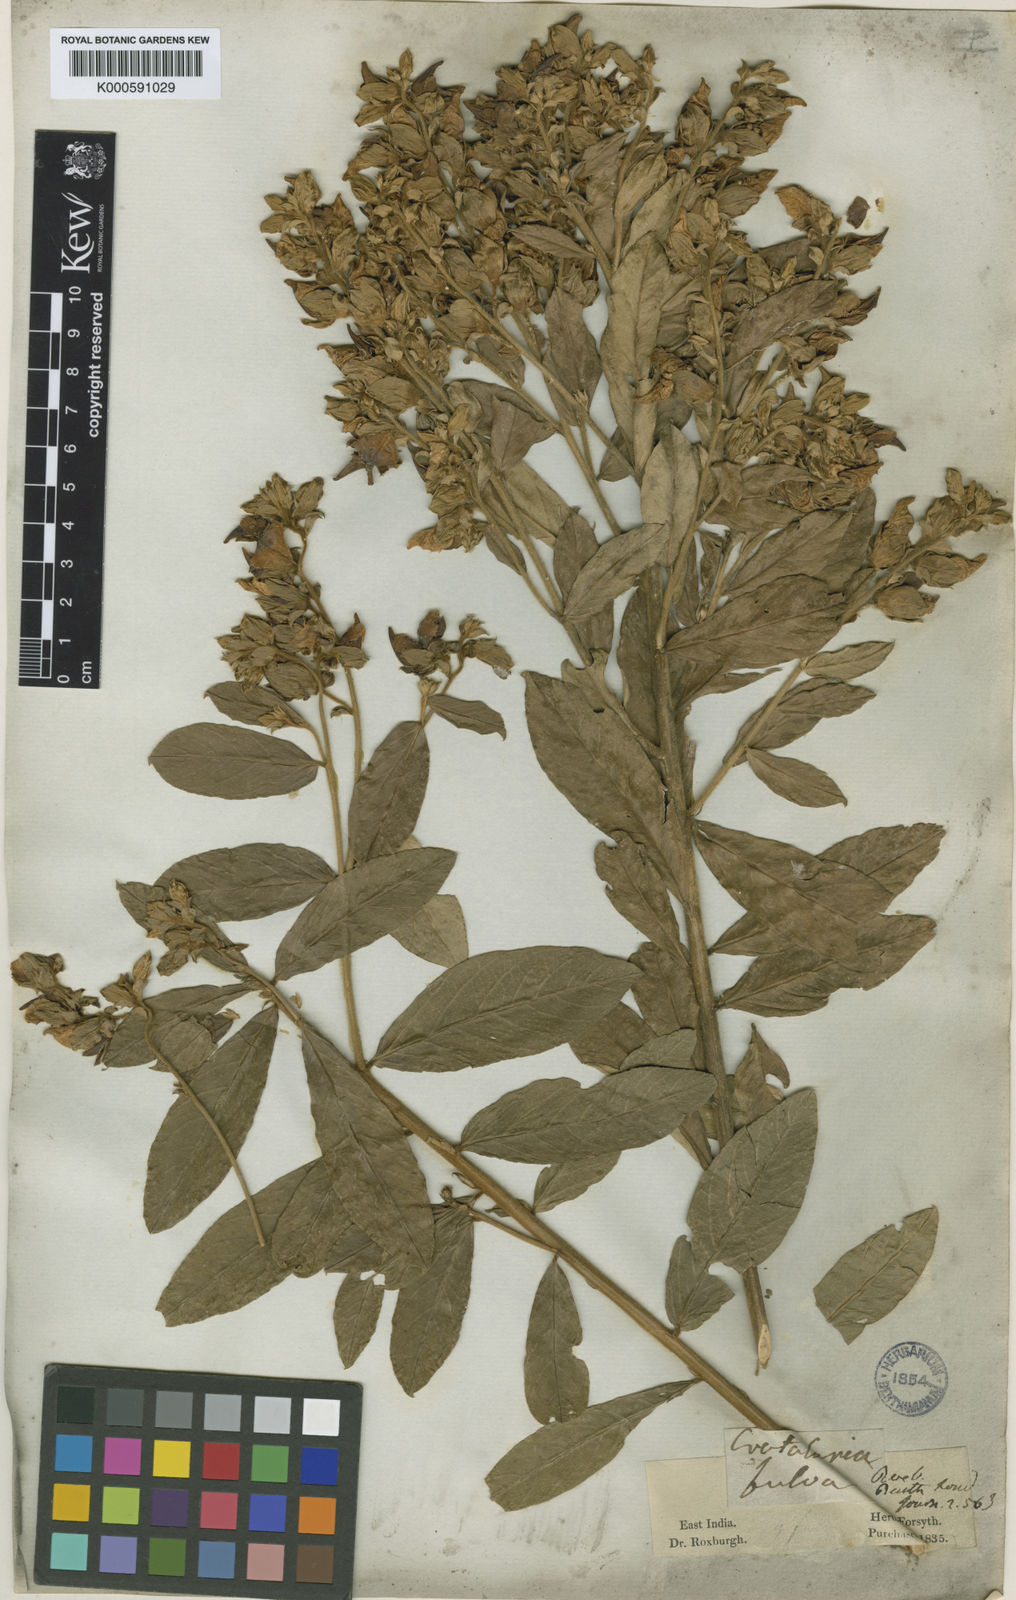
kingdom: Plantae
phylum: Tracheophyta
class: Magnoliopsida
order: Fabales
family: Fabaceae
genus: Crotalaria
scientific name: Crotalaria berteroana
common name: Berteron's rattlebox
